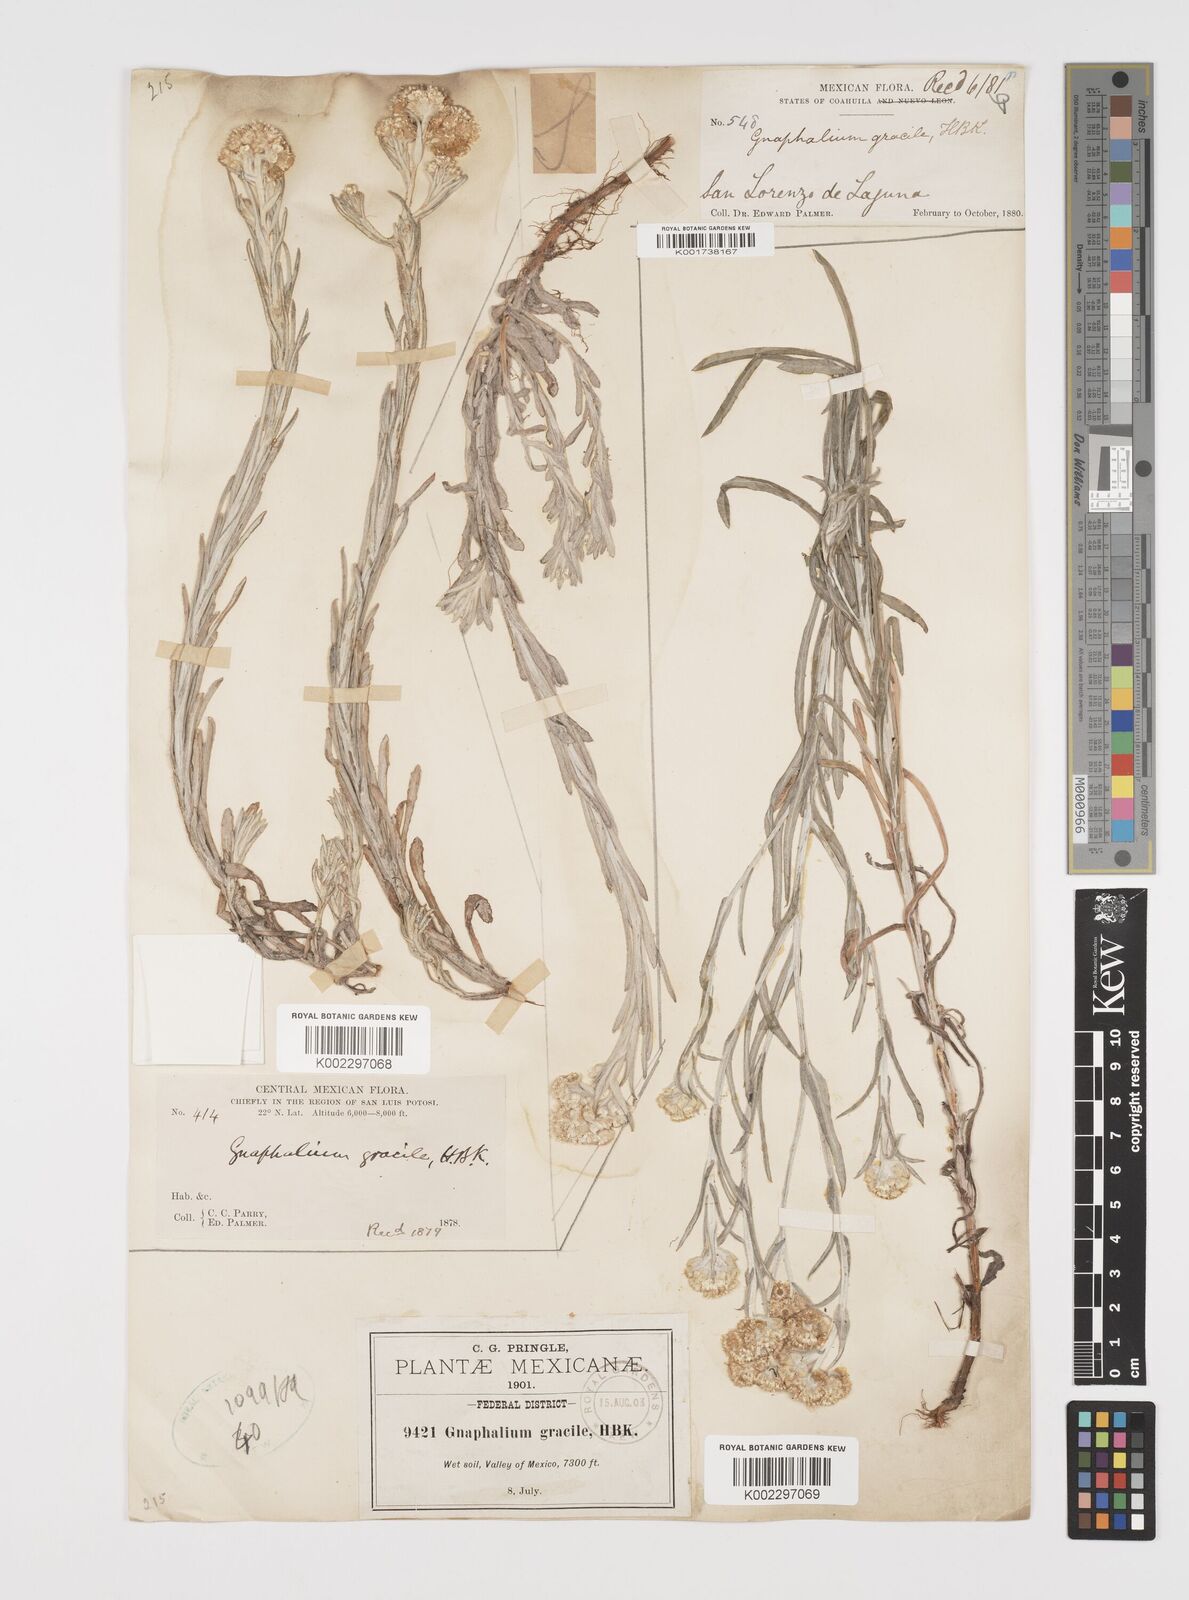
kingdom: Plantae
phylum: Tracheophyta
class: Magnoliopsida
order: Asterales
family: Asteraceae
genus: Pseudognaphalium
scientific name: Pseudognaphalium
